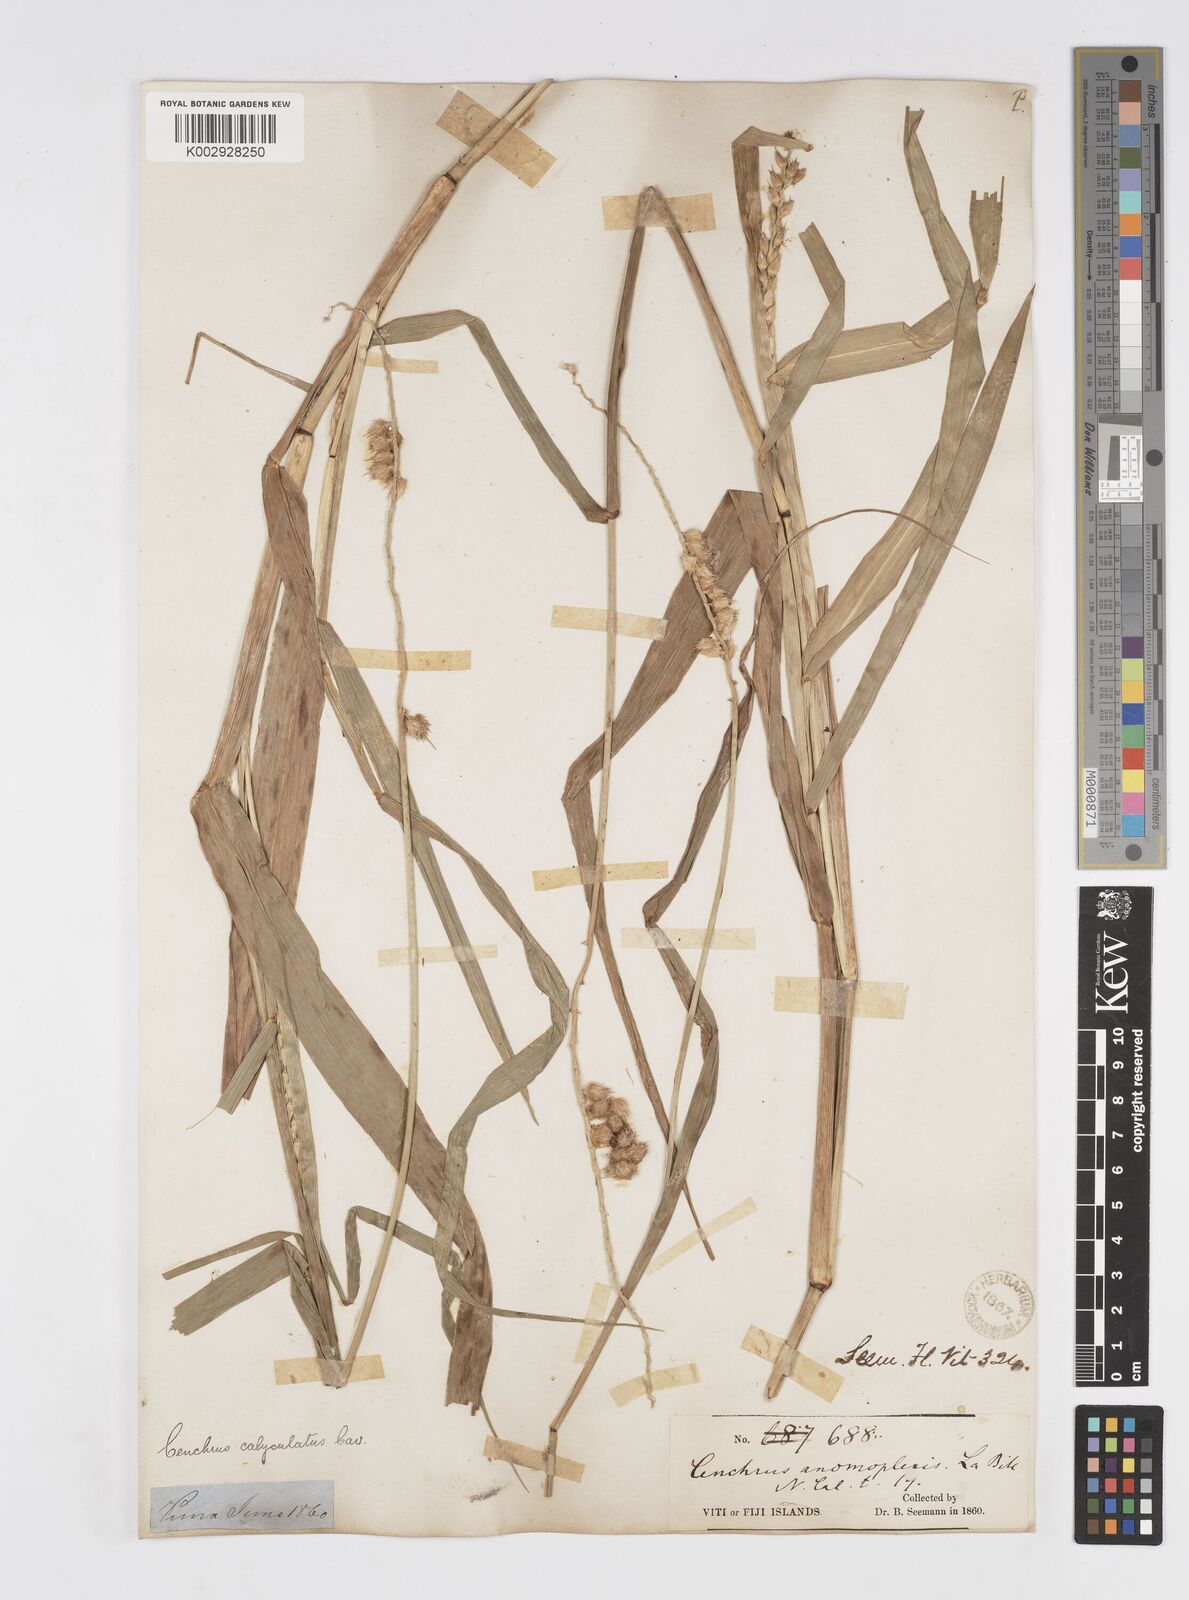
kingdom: Plantae
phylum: Tracheophyta
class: Liliopsida
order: Poales
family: Poaceae
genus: Cenchrus
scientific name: Cenchrus caliculatus
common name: Large bur grass
